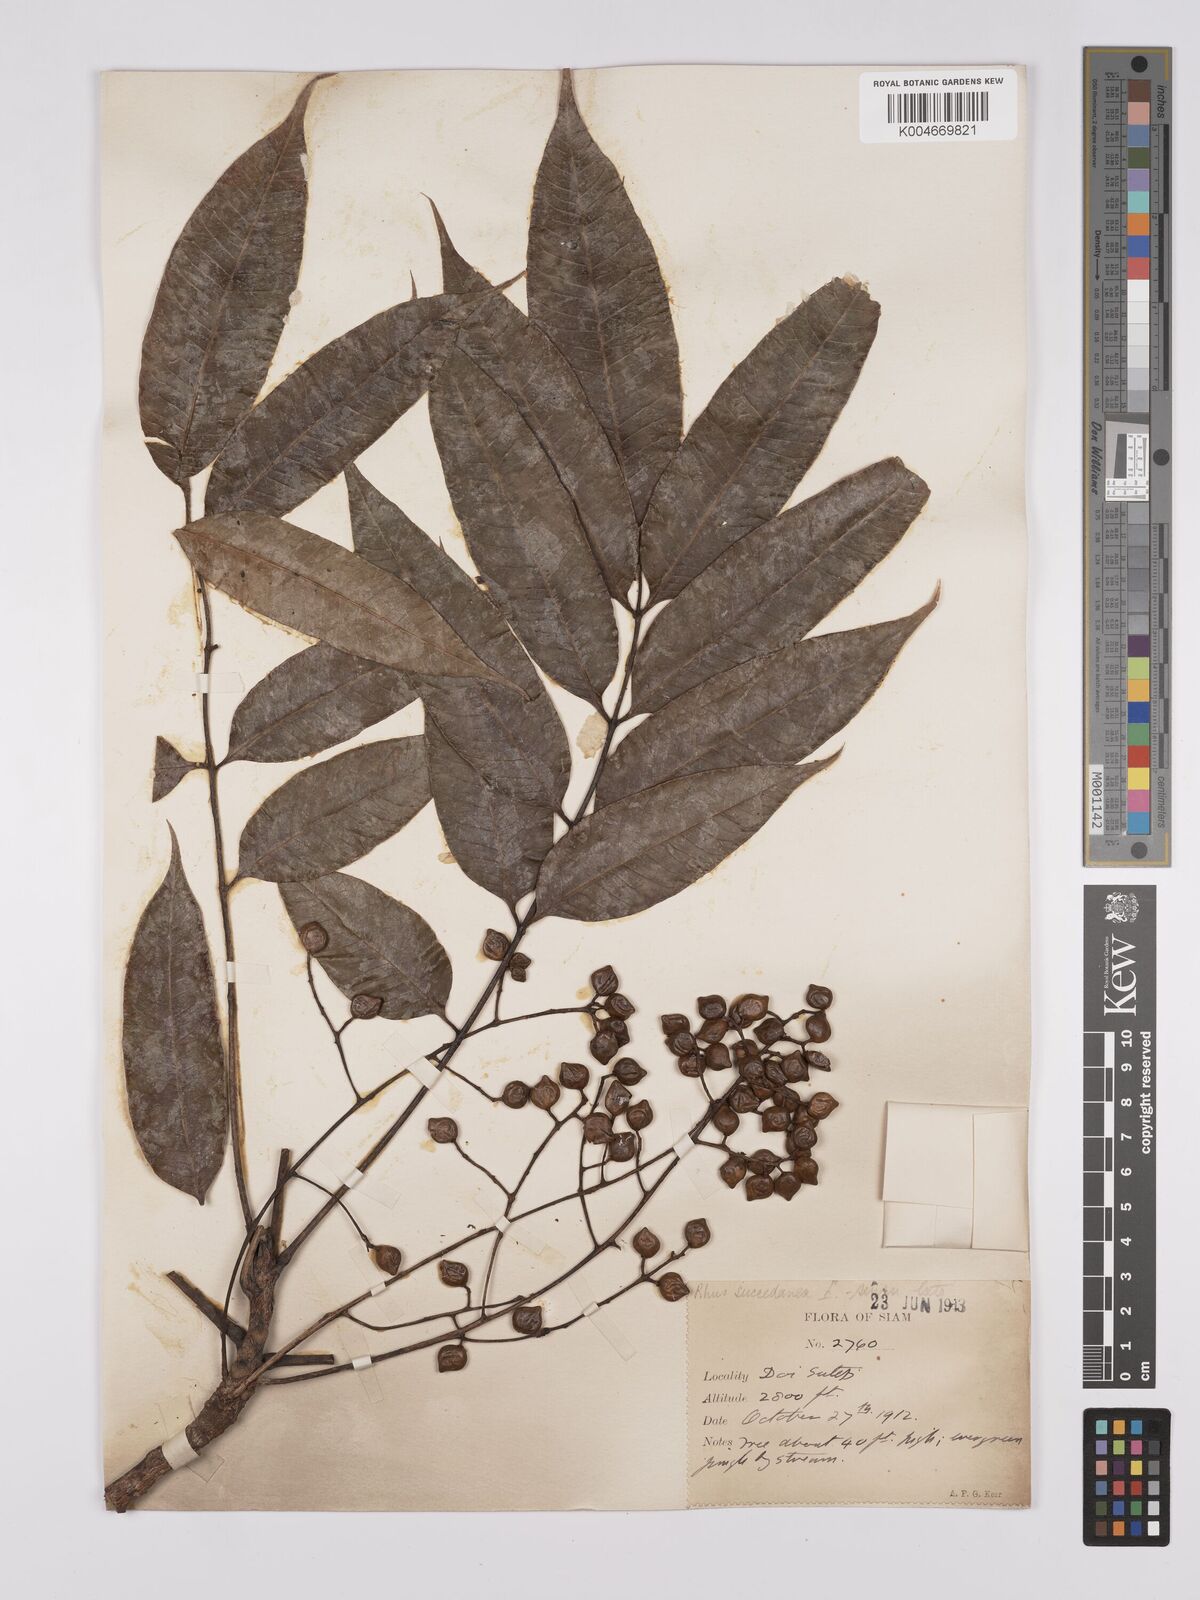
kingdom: Plantae
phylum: Tracheophyta
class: Magnoliopsida
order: Sapindales
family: Anacardiaceae
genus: Toxicodendron
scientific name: Toxicodendron succedaneum
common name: Wax tree
